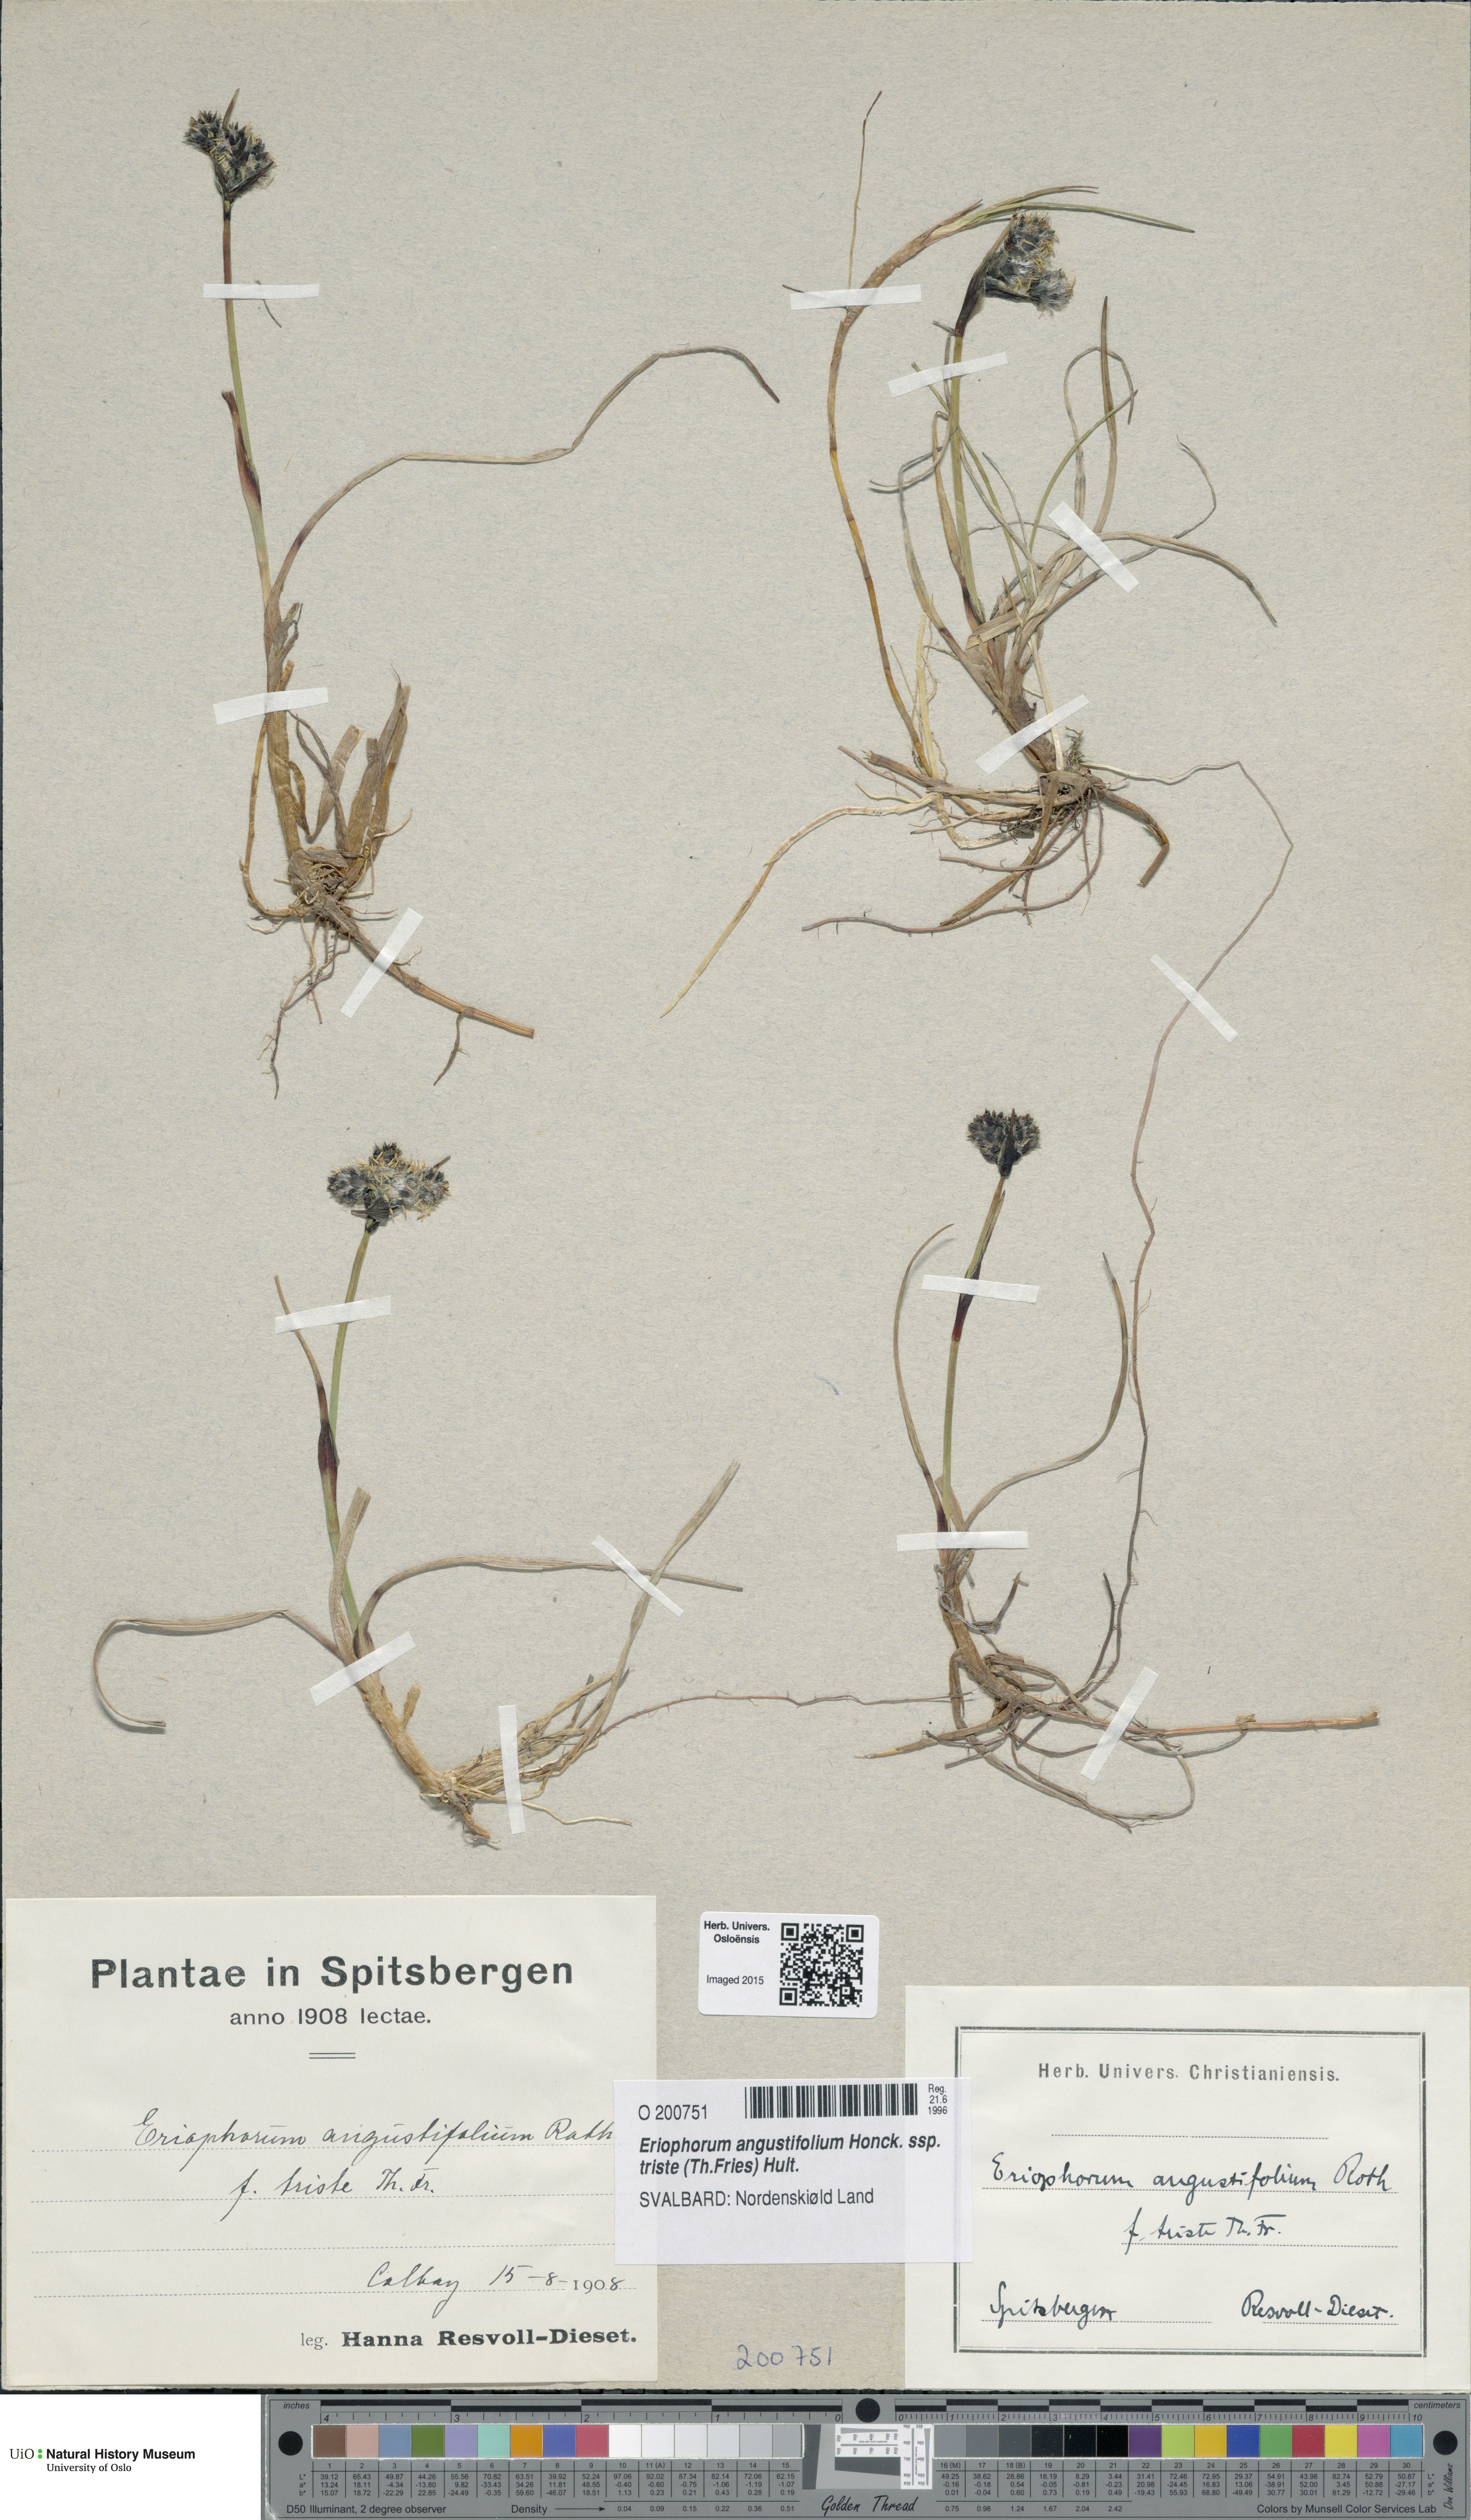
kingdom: Plantae
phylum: Tracheophyta
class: Liliopsida
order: Poales
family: Cyperaceae
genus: Eriophorum
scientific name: Eriophorum triste
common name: Tall cottongrass
